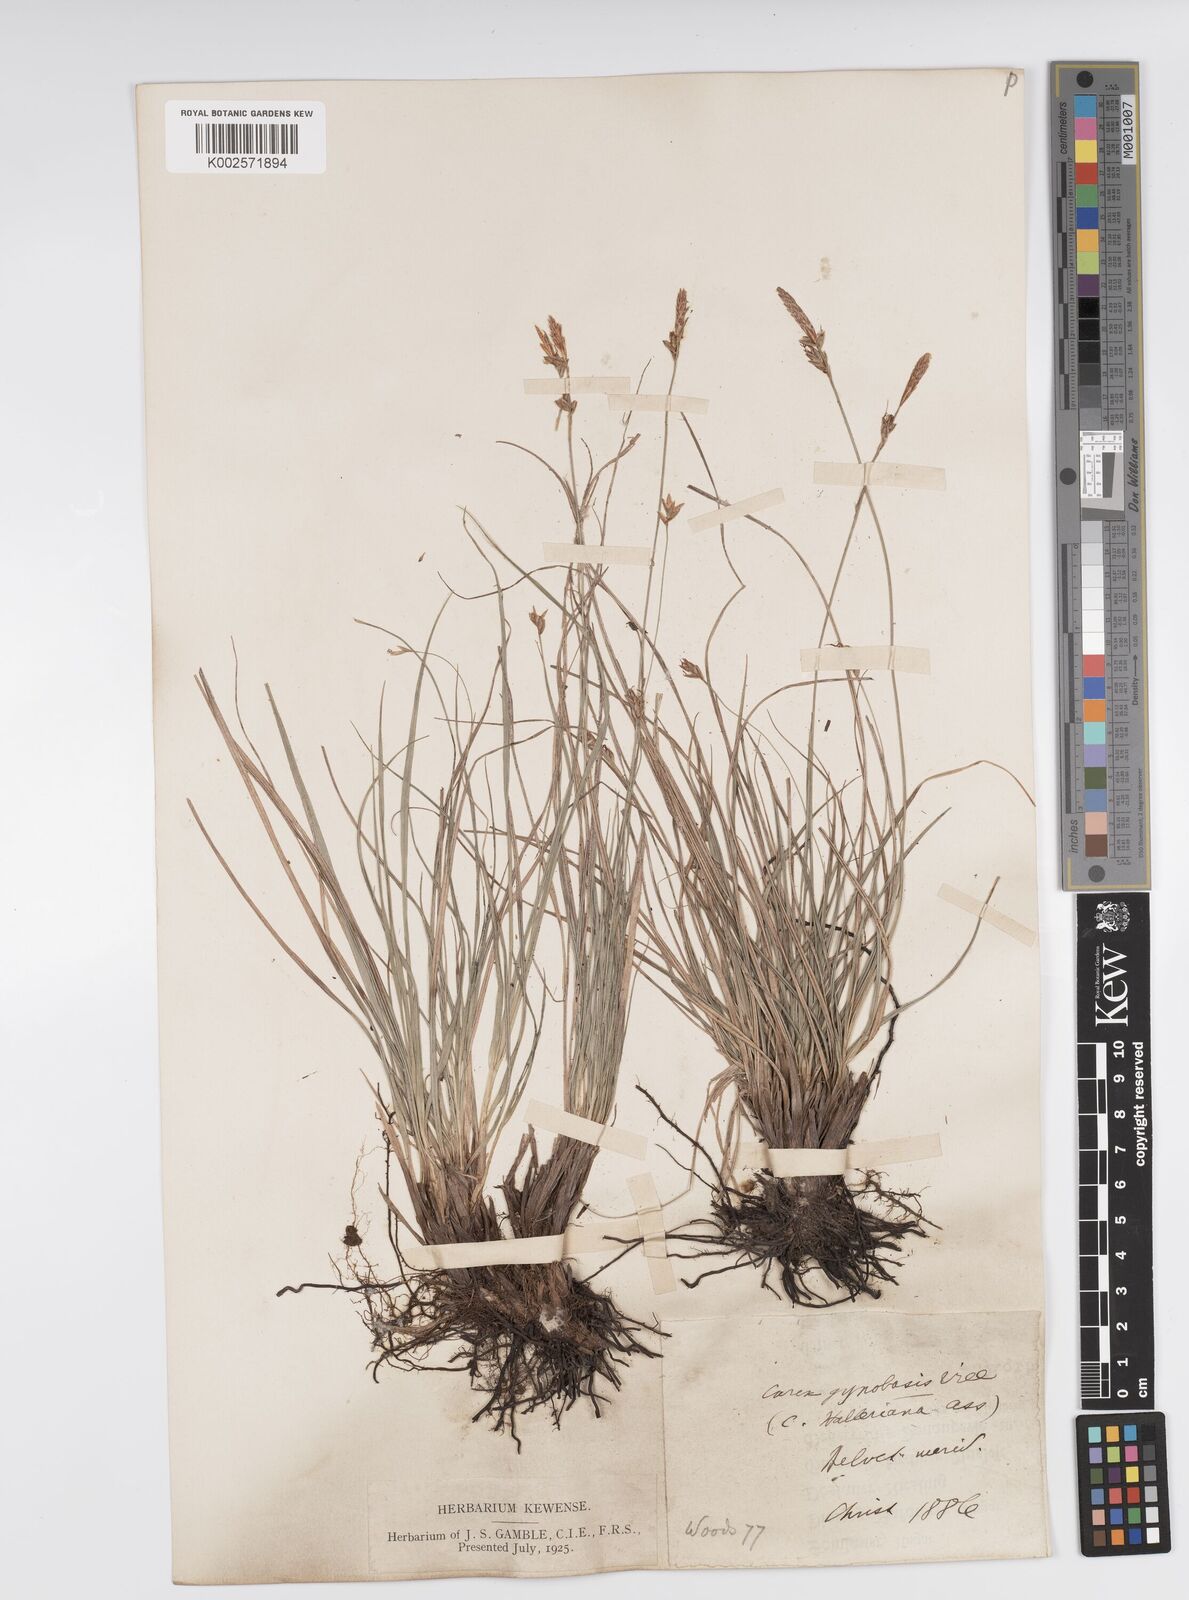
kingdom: Plantae
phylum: Tracheophyta
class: Liliopsida
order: Poales
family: Cyperaceae
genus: Carex
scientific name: Carex halleriana
